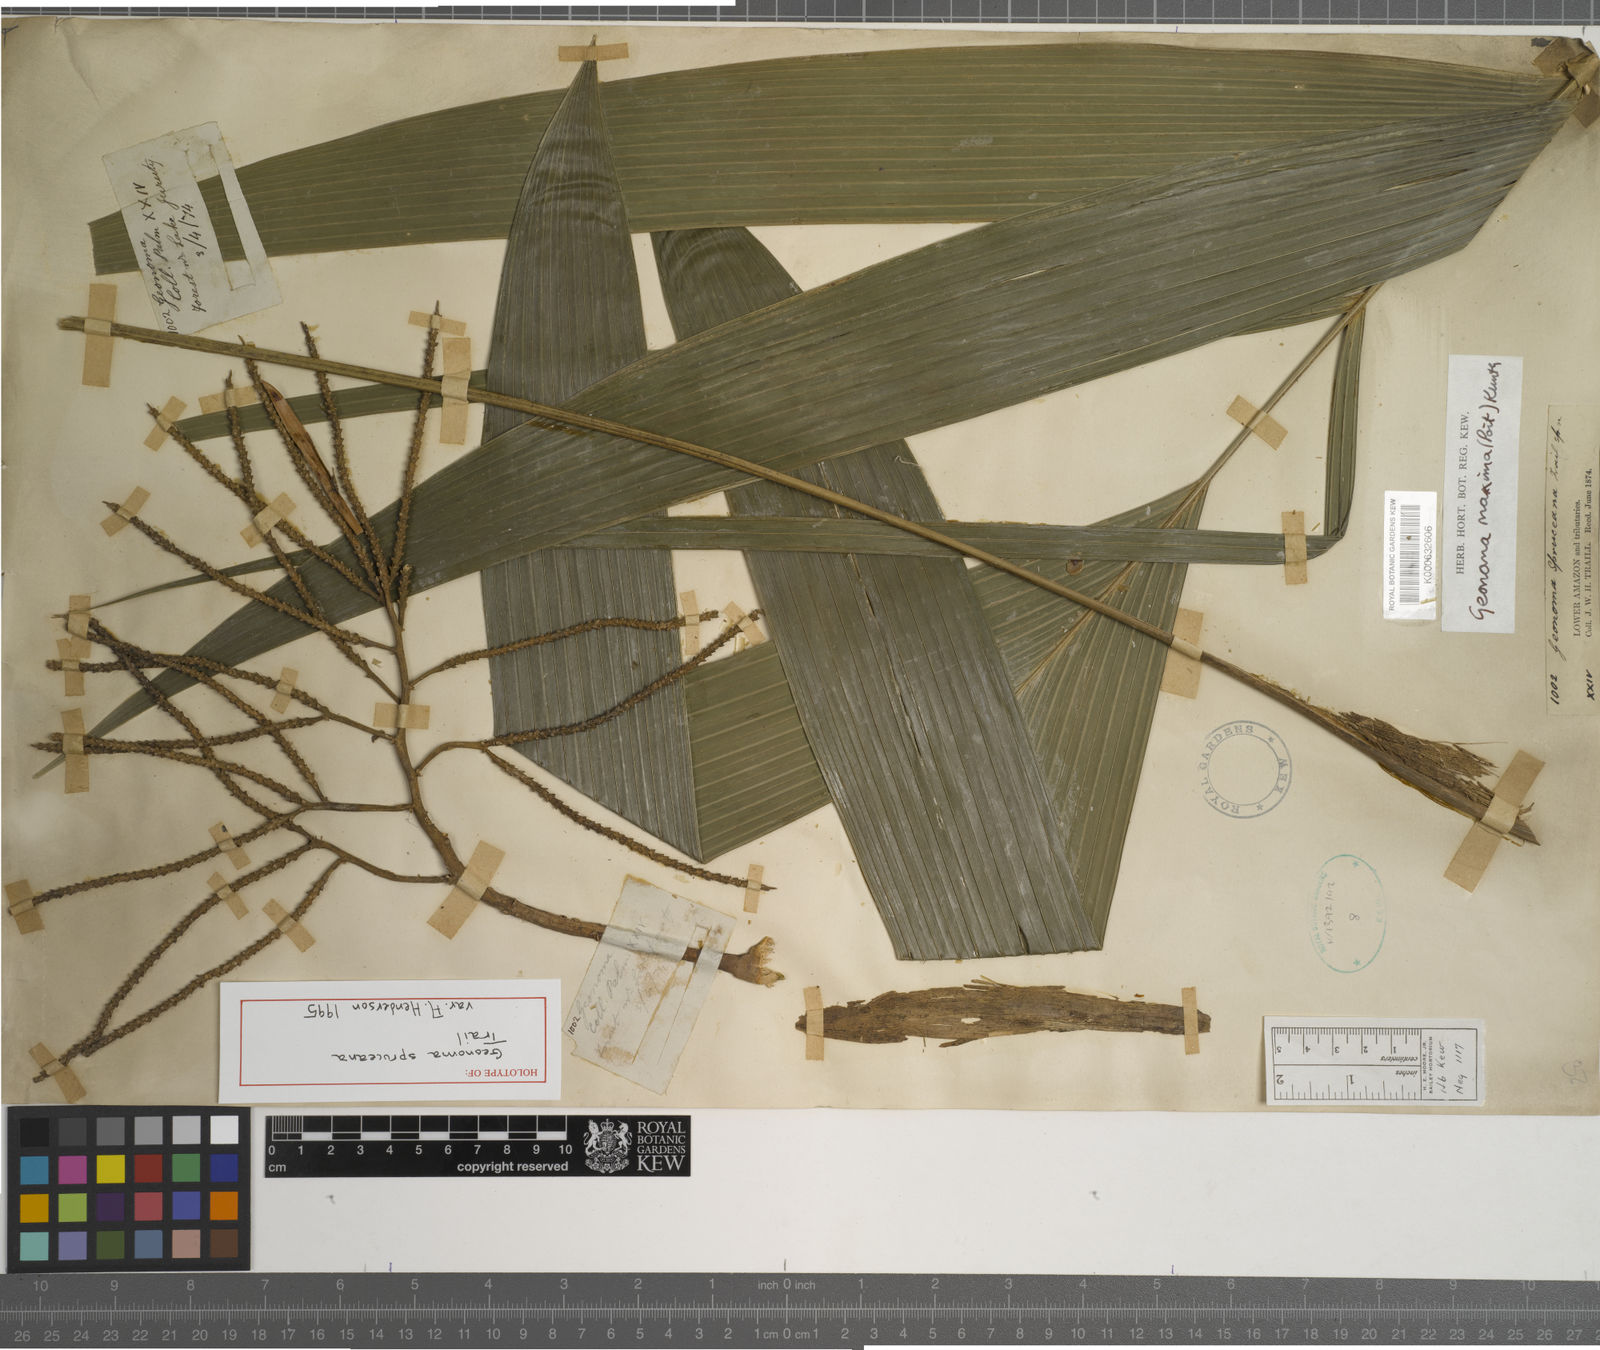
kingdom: Plantae
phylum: Tracheophyta
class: Liliopsida
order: Arecales
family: Arecaceae
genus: Geonoma
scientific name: Geonoma maxima
